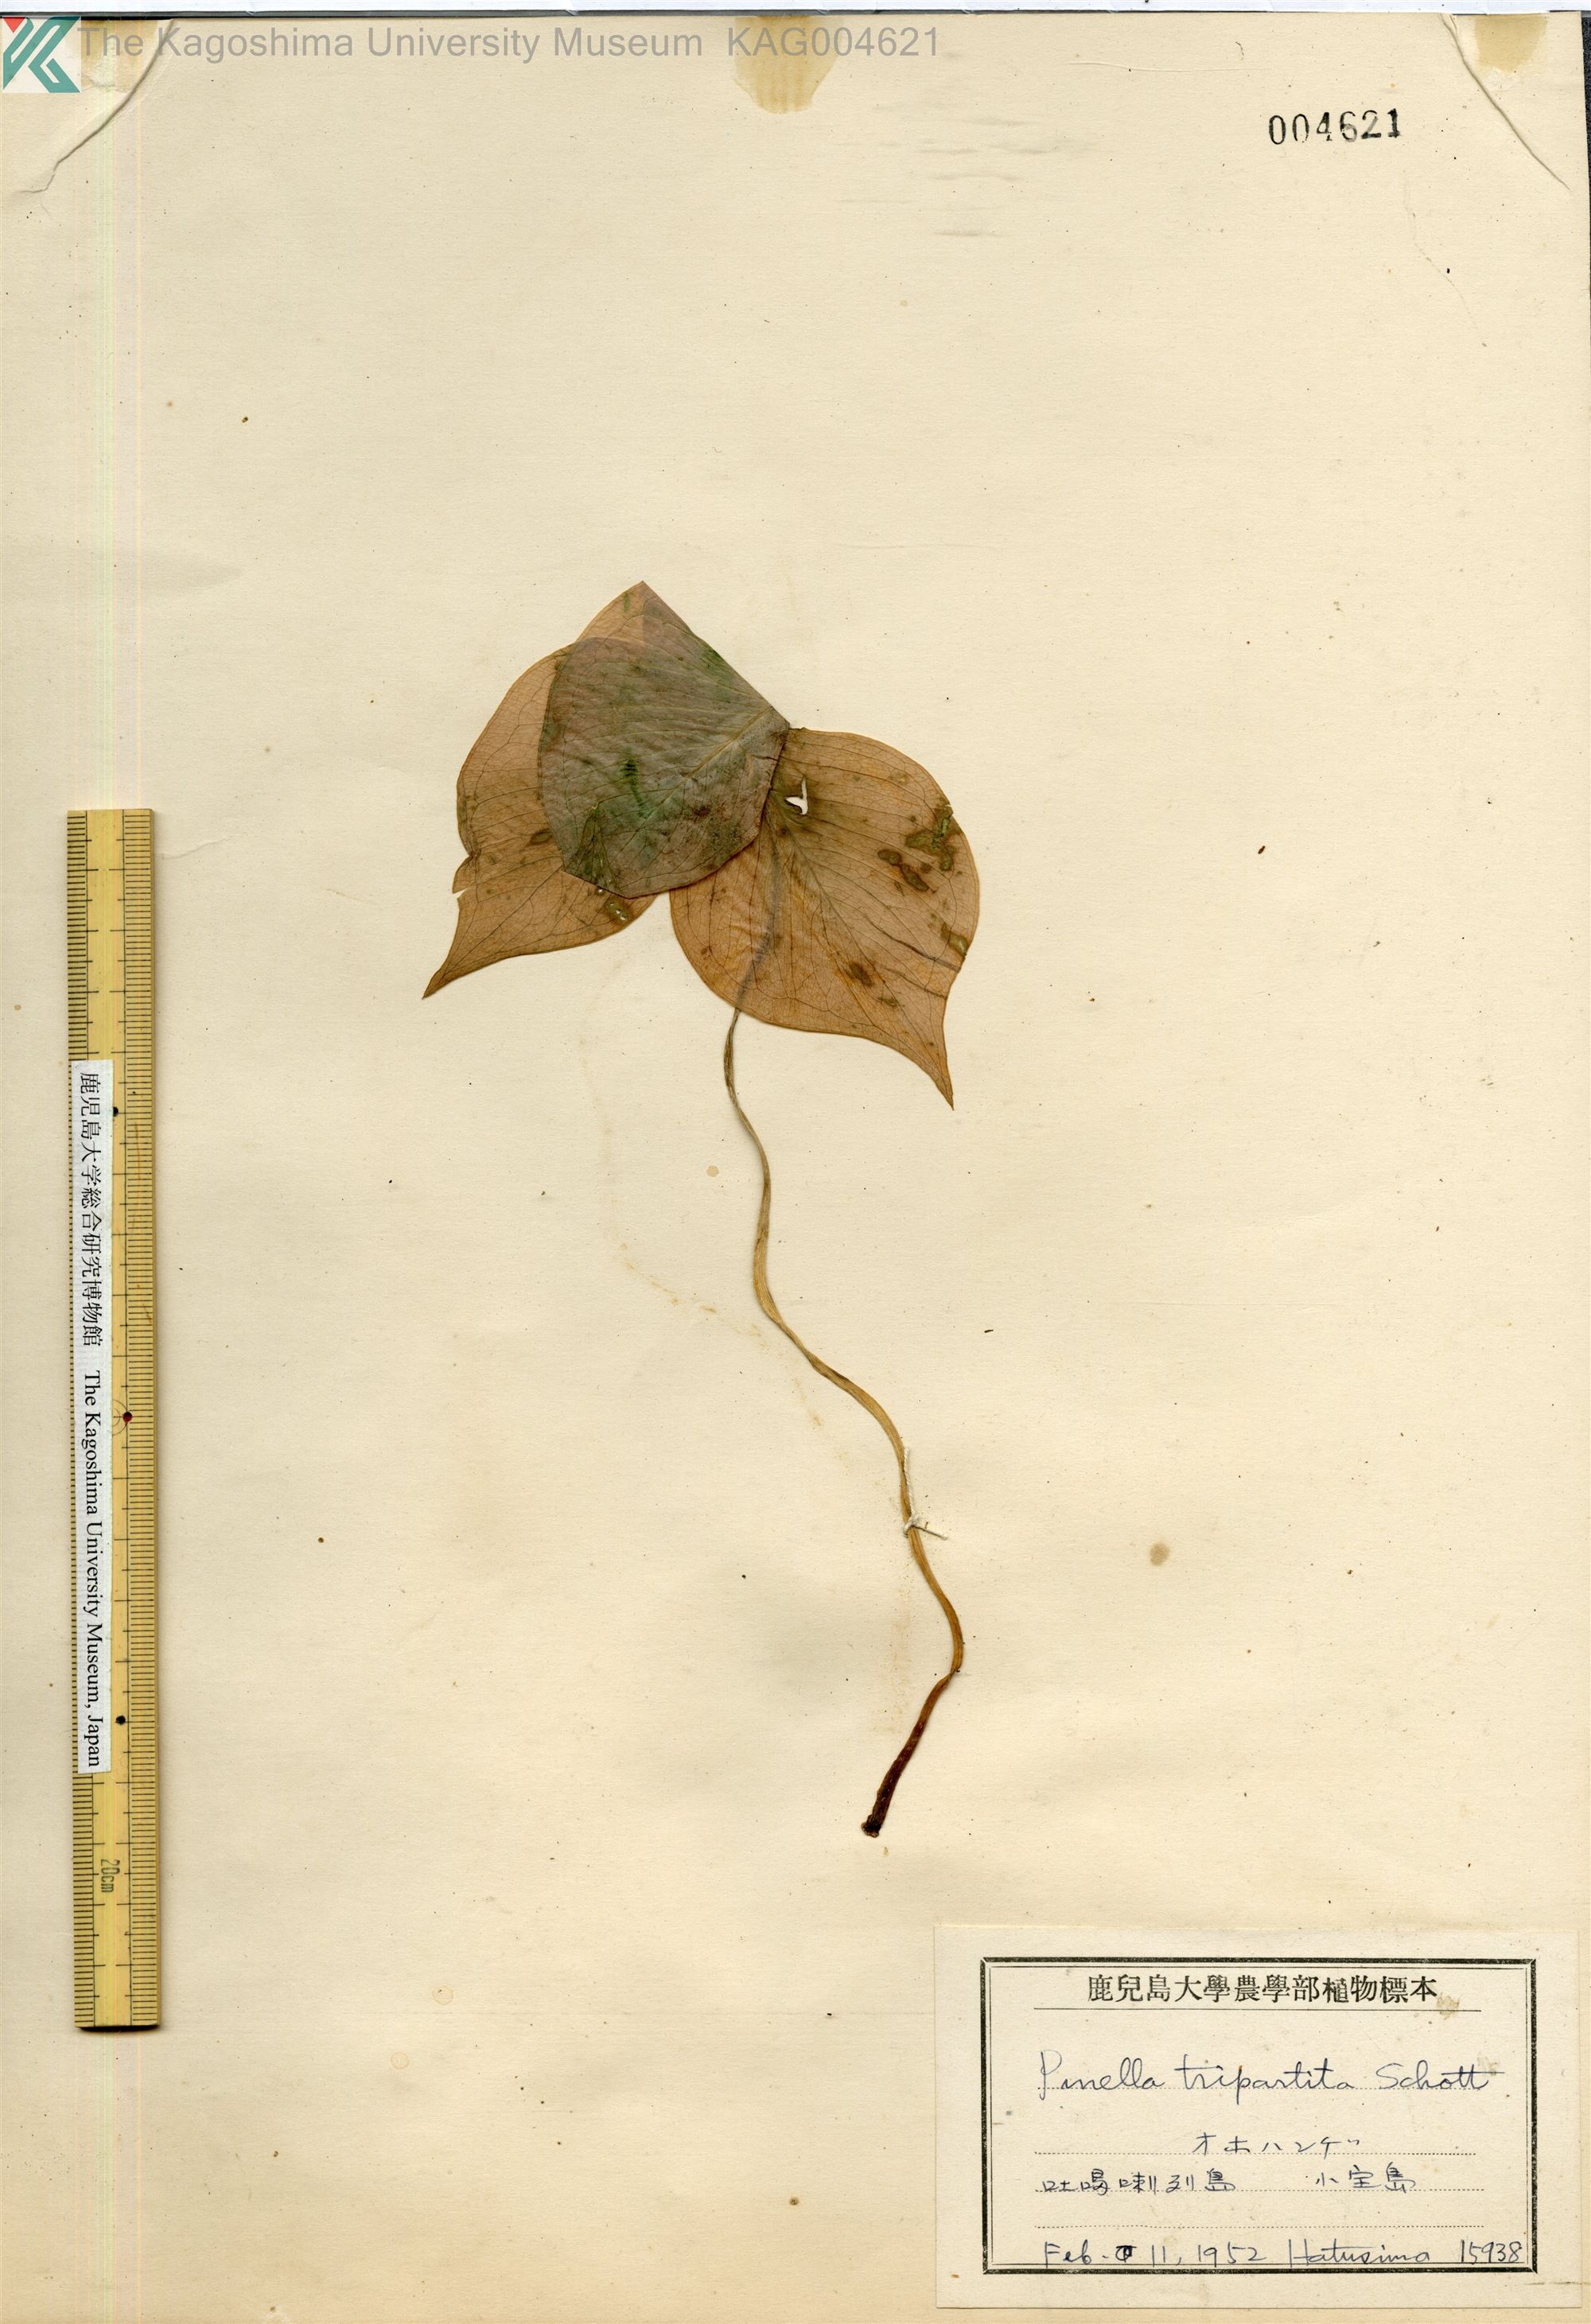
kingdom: Plantae
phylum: Tracheophyta
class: Liliopsida
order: Alismatales
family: Araceae
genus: Pinellia
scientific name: Pinellia tripartita
